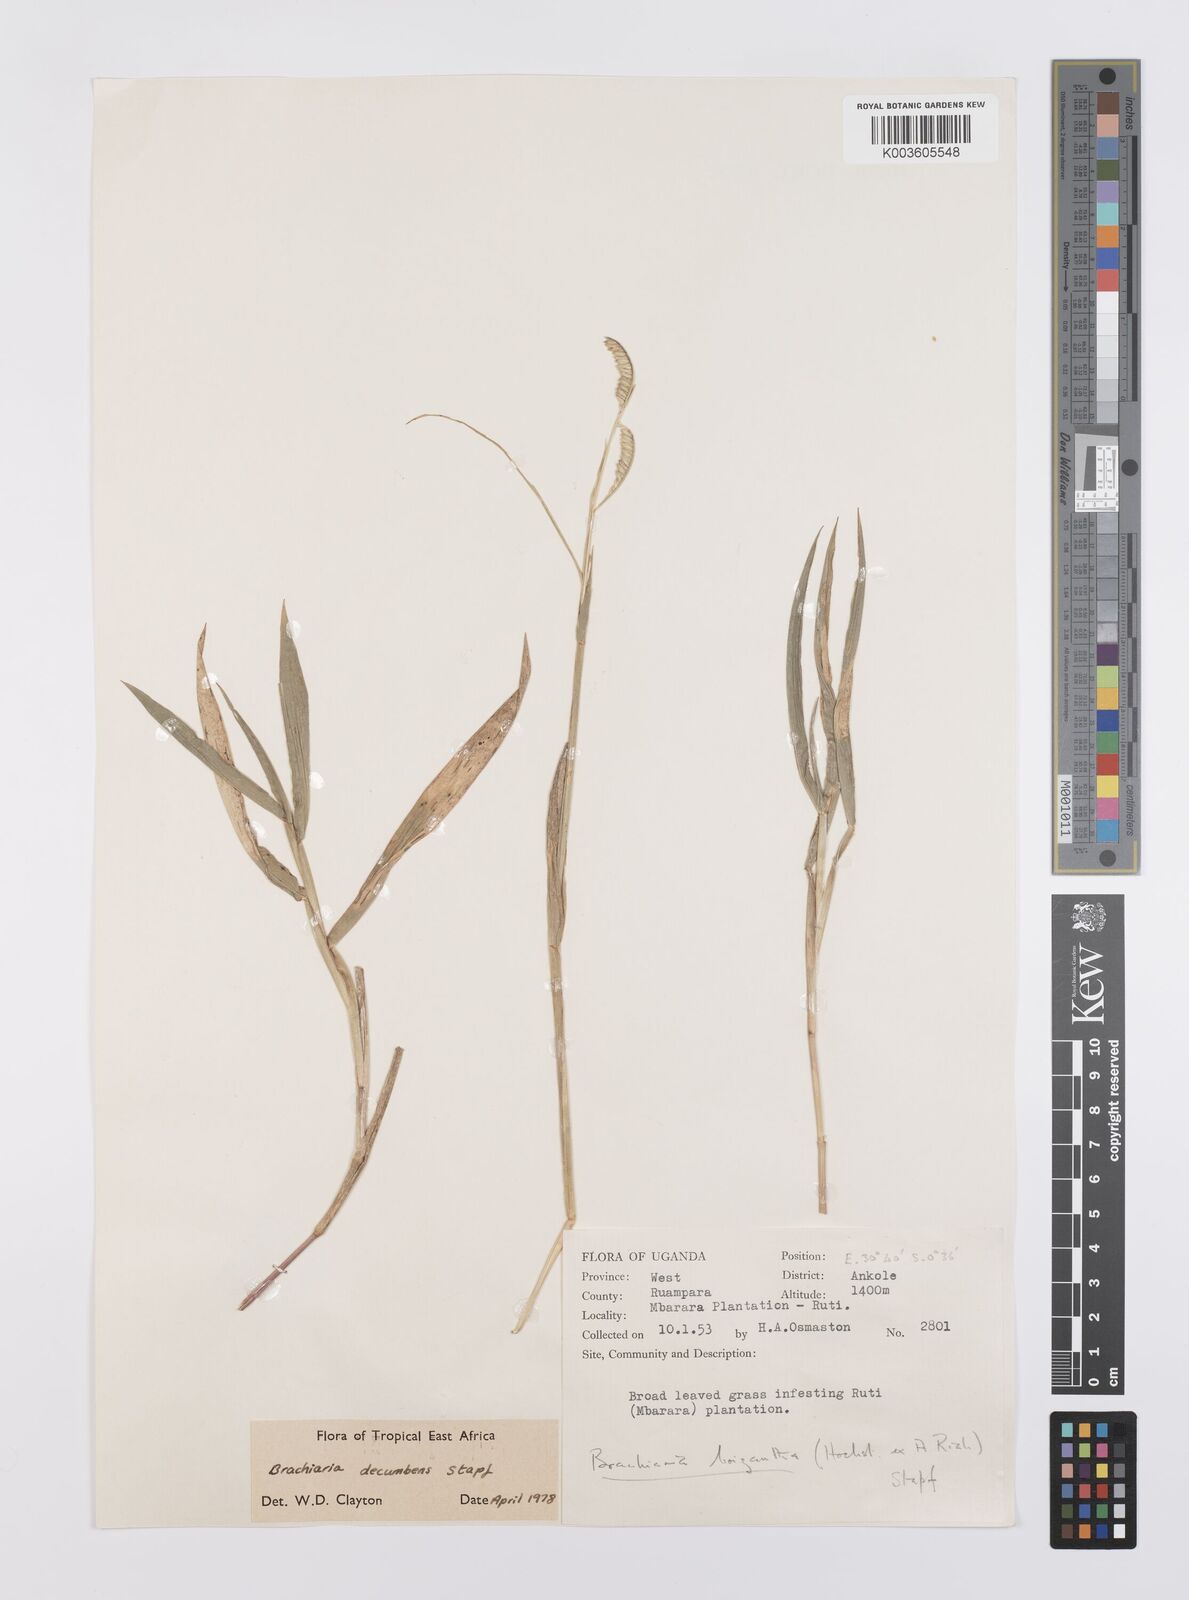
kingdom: Plantae
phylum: Tracheophyta
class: Liliopsida
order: Poales
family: Poaceae
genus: Urochloa
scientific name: Urochloa eminii
